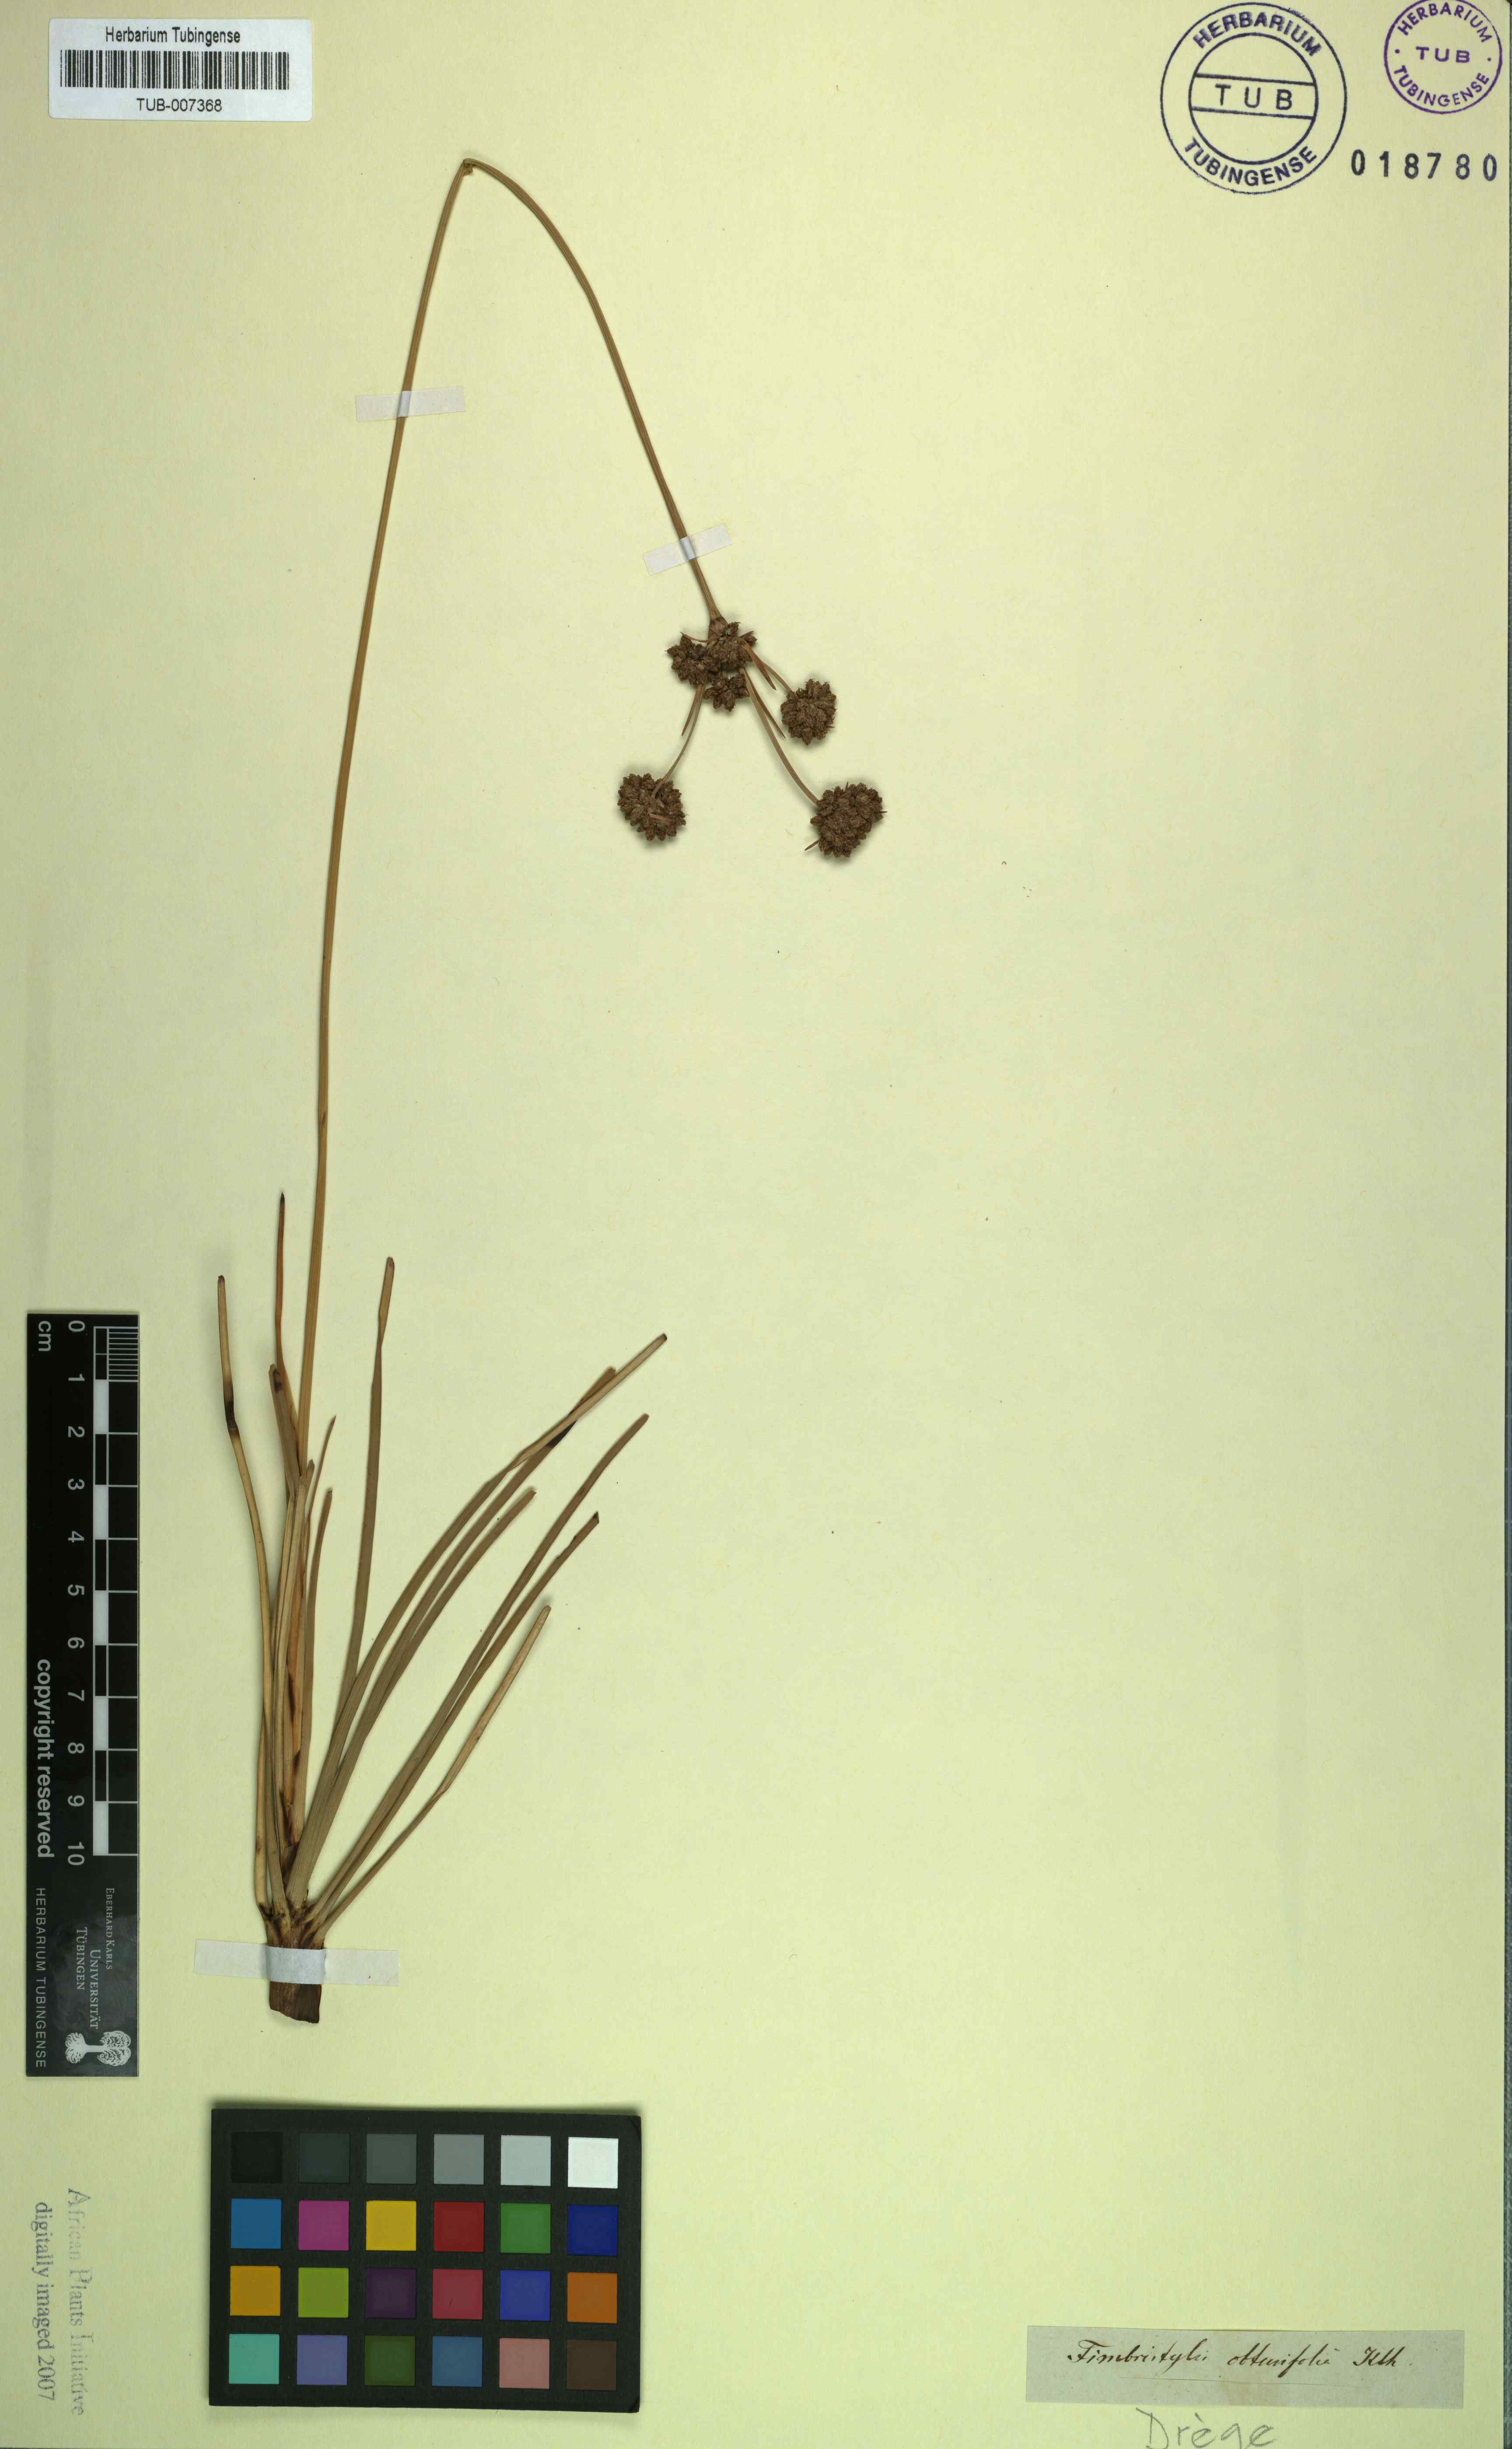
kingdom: Plantae
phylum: Tracheophyta
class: Liliopsida
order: Poales
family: Cyperaceae
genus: Fimbristylis
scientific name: Fimbristylis cymosa
